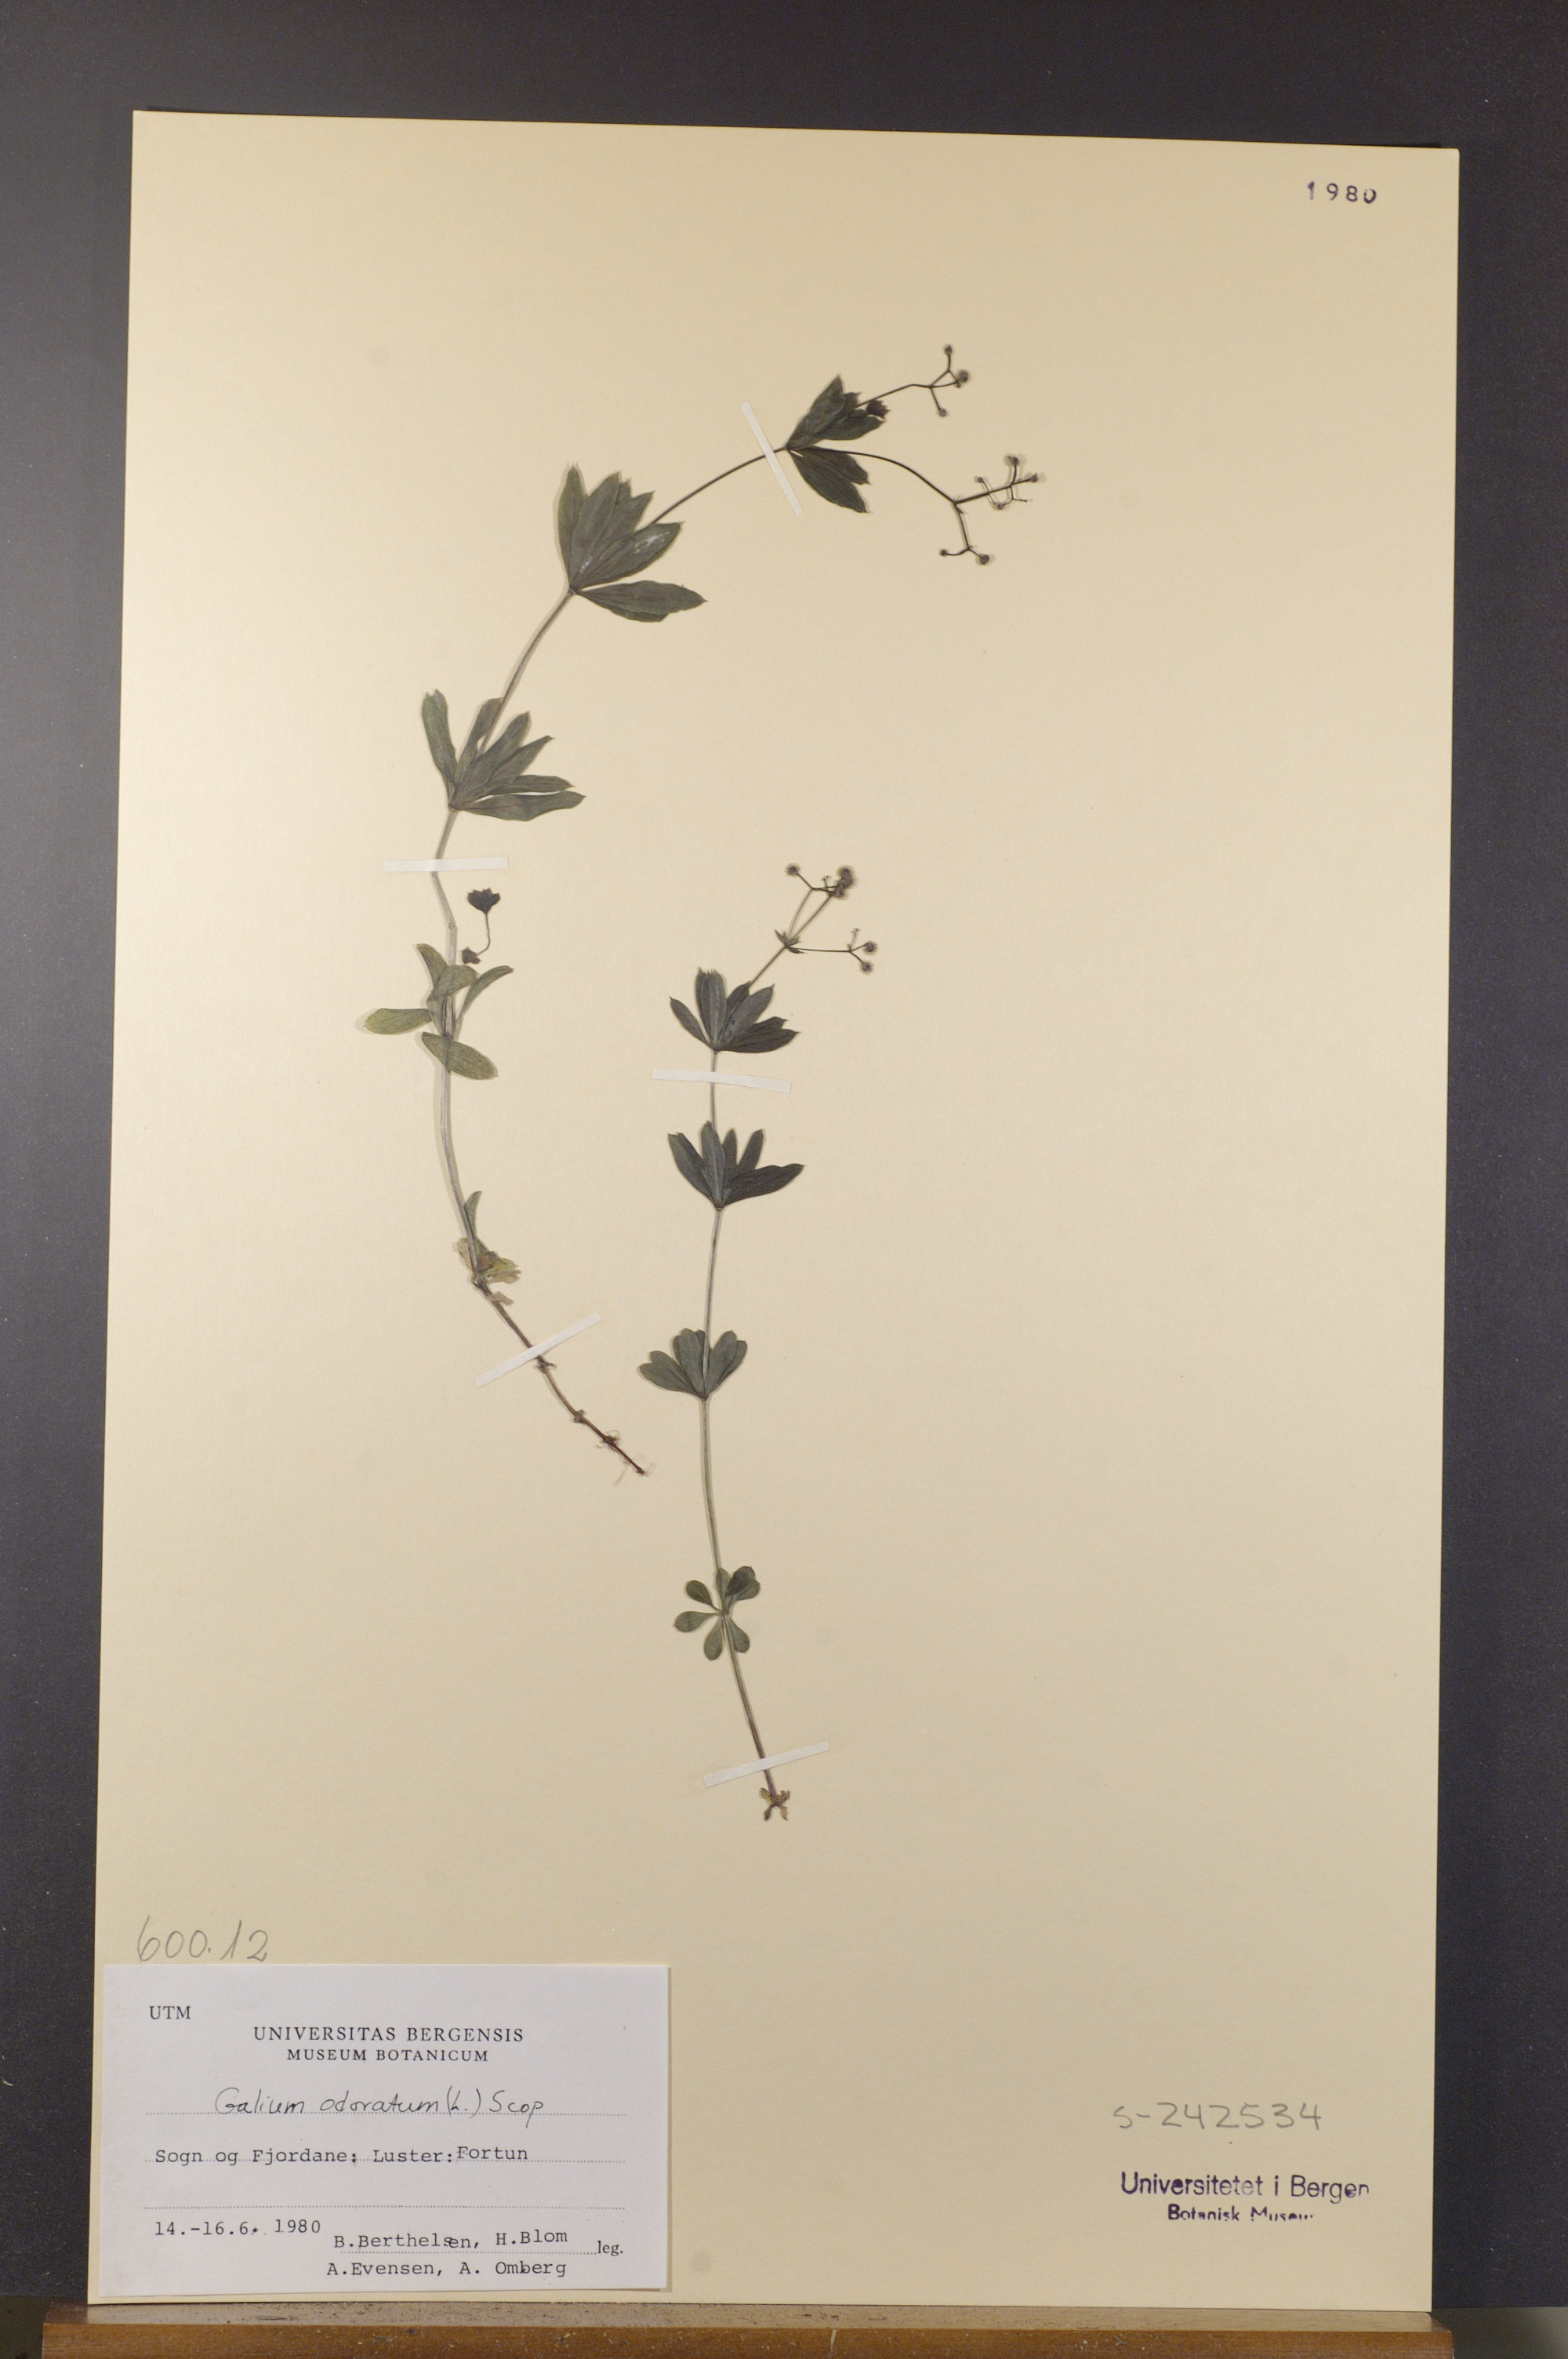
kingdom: Plantae
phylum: Tracheophyta
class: Magnoliopsida
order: Gentianales
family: Rubiaceae
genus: Galium
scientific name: Galium odoratum
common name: Sweet woodruff
